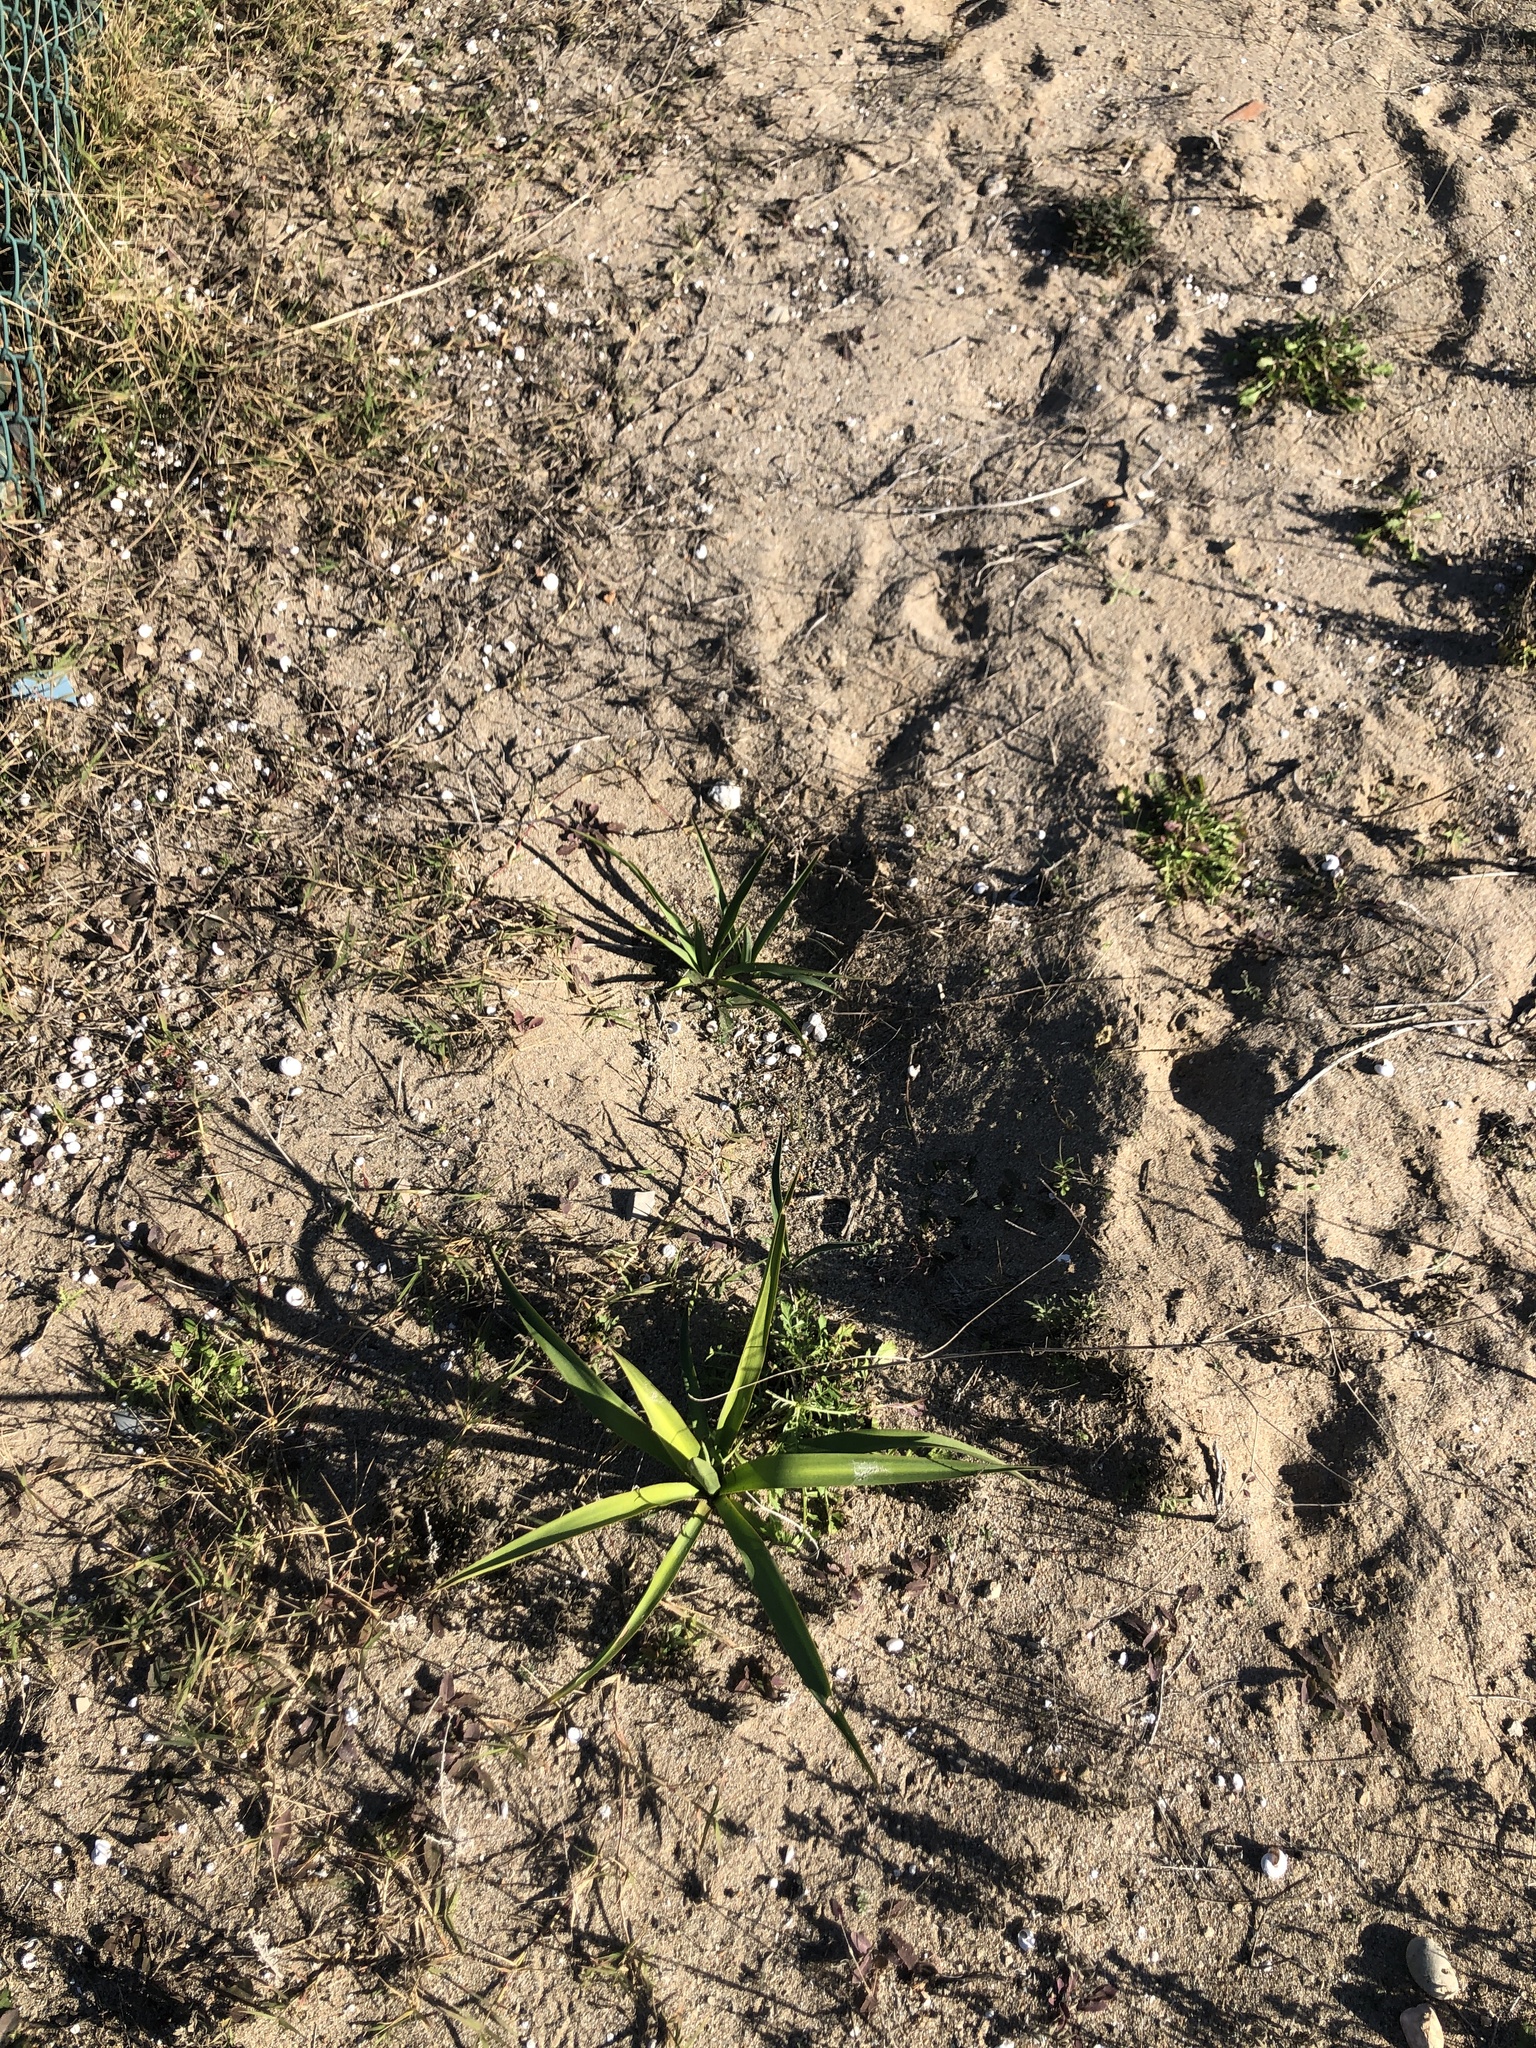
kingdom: Plantae
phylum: Tracheophyta
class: Liliopsida
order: Asparagales
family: Asparagaceae
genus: Yucca
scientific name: Yucca aloifolia
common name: Aloe yucca
